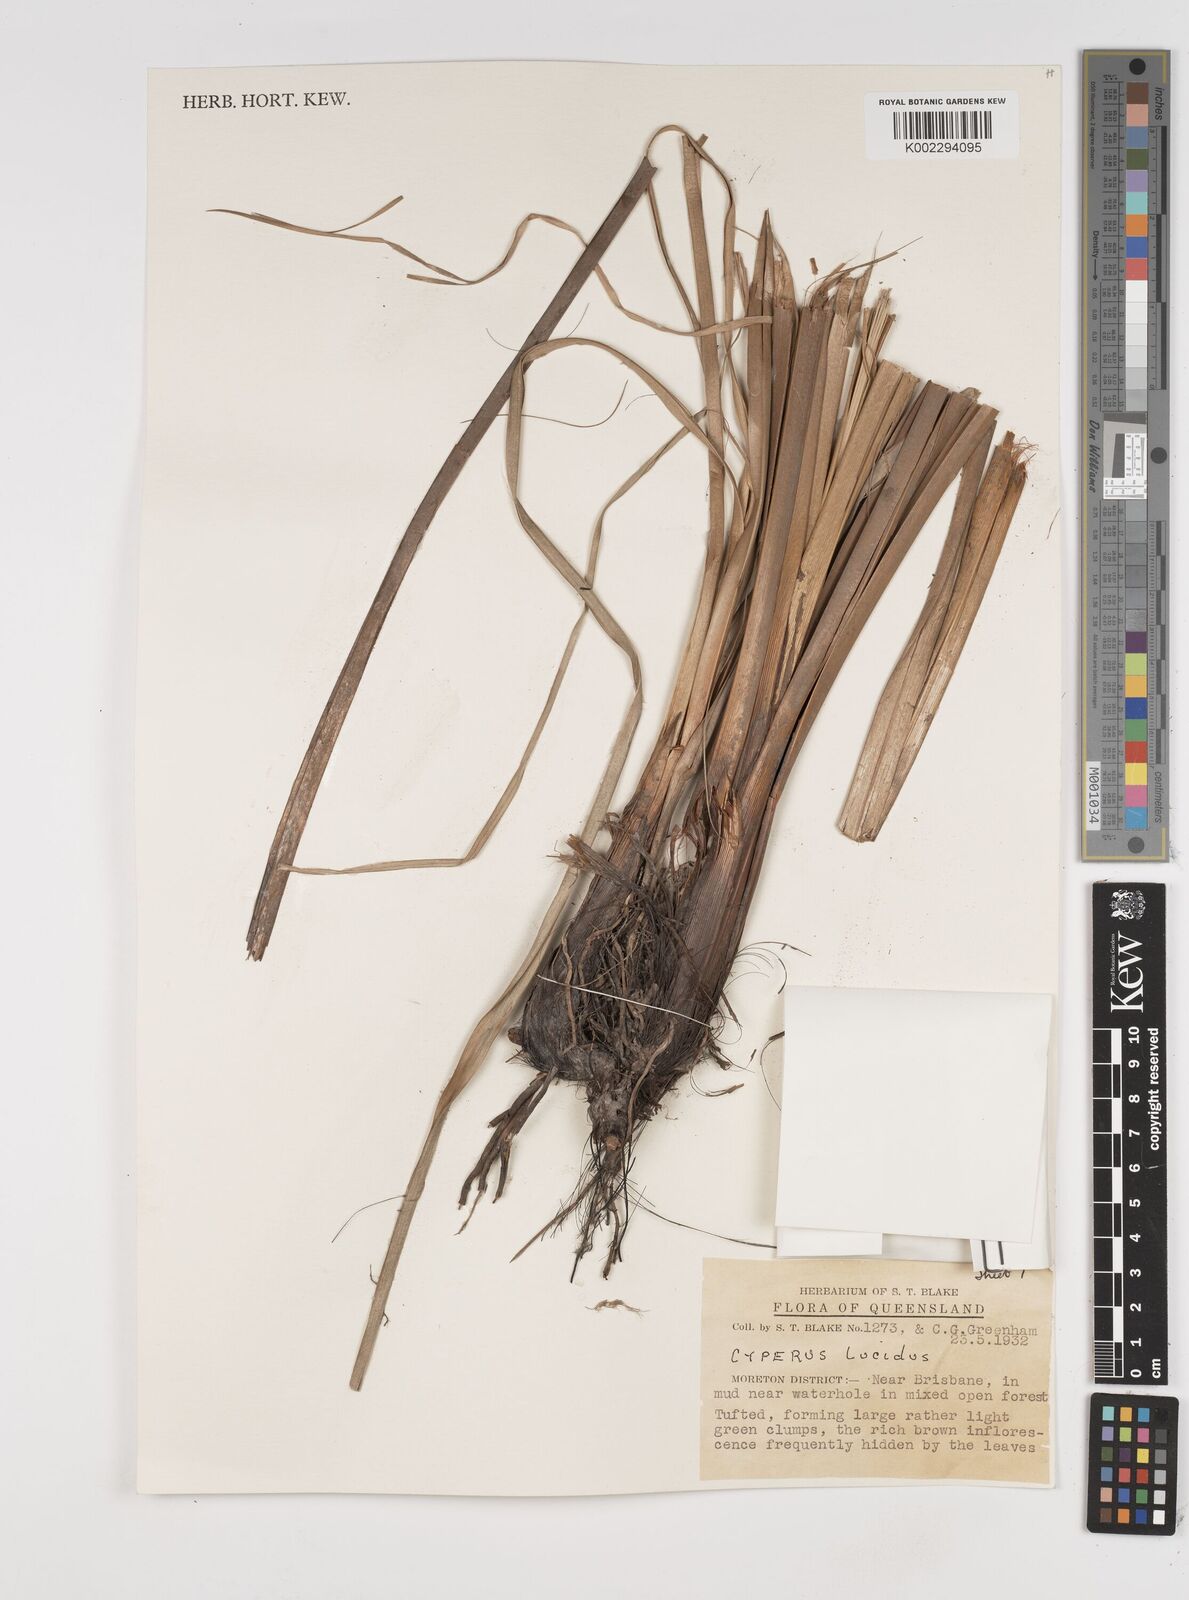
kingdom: Plantae
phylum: Tracheophyta
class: Liliopsida
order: Poales
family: Cyperaceae
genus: Cyperus
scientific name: Cyperus lucidus
